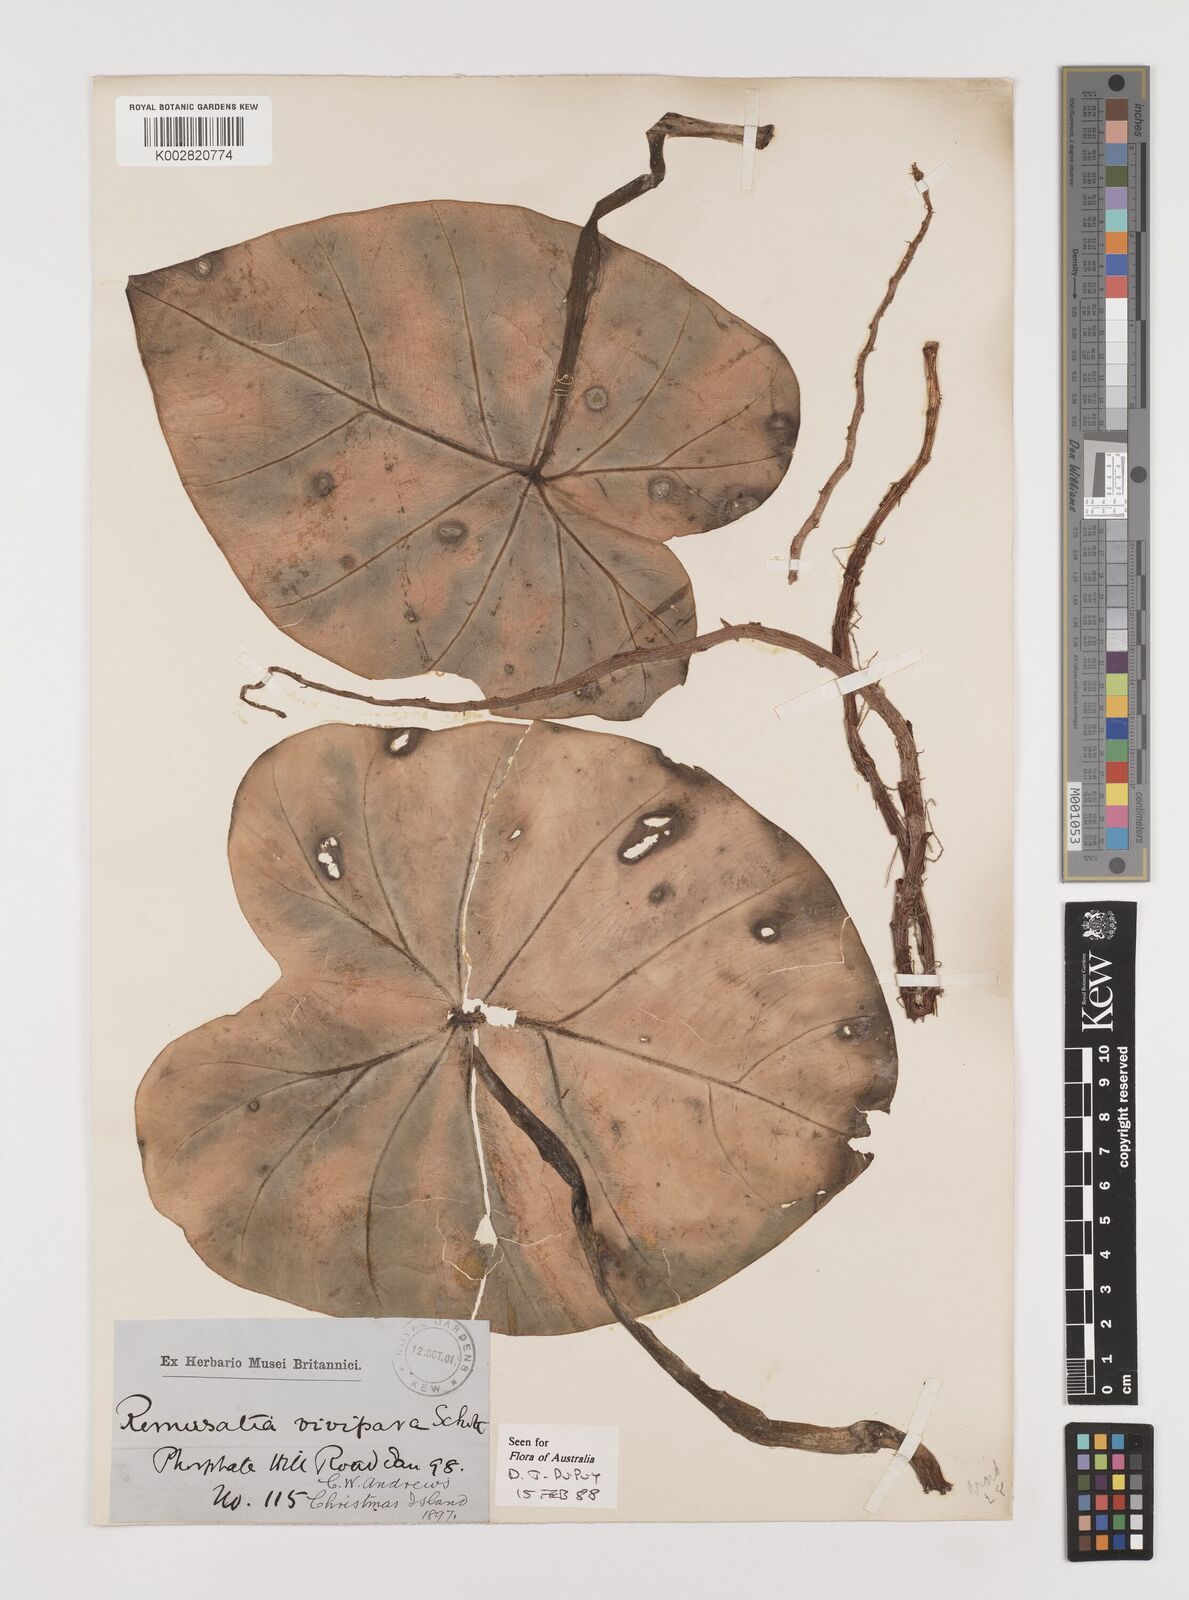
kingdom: Plantae
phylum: Tracheophyta
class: Liliopsida
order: Alismatales
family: Araceae
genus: Remusatia
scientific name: Remusatia vivipara
